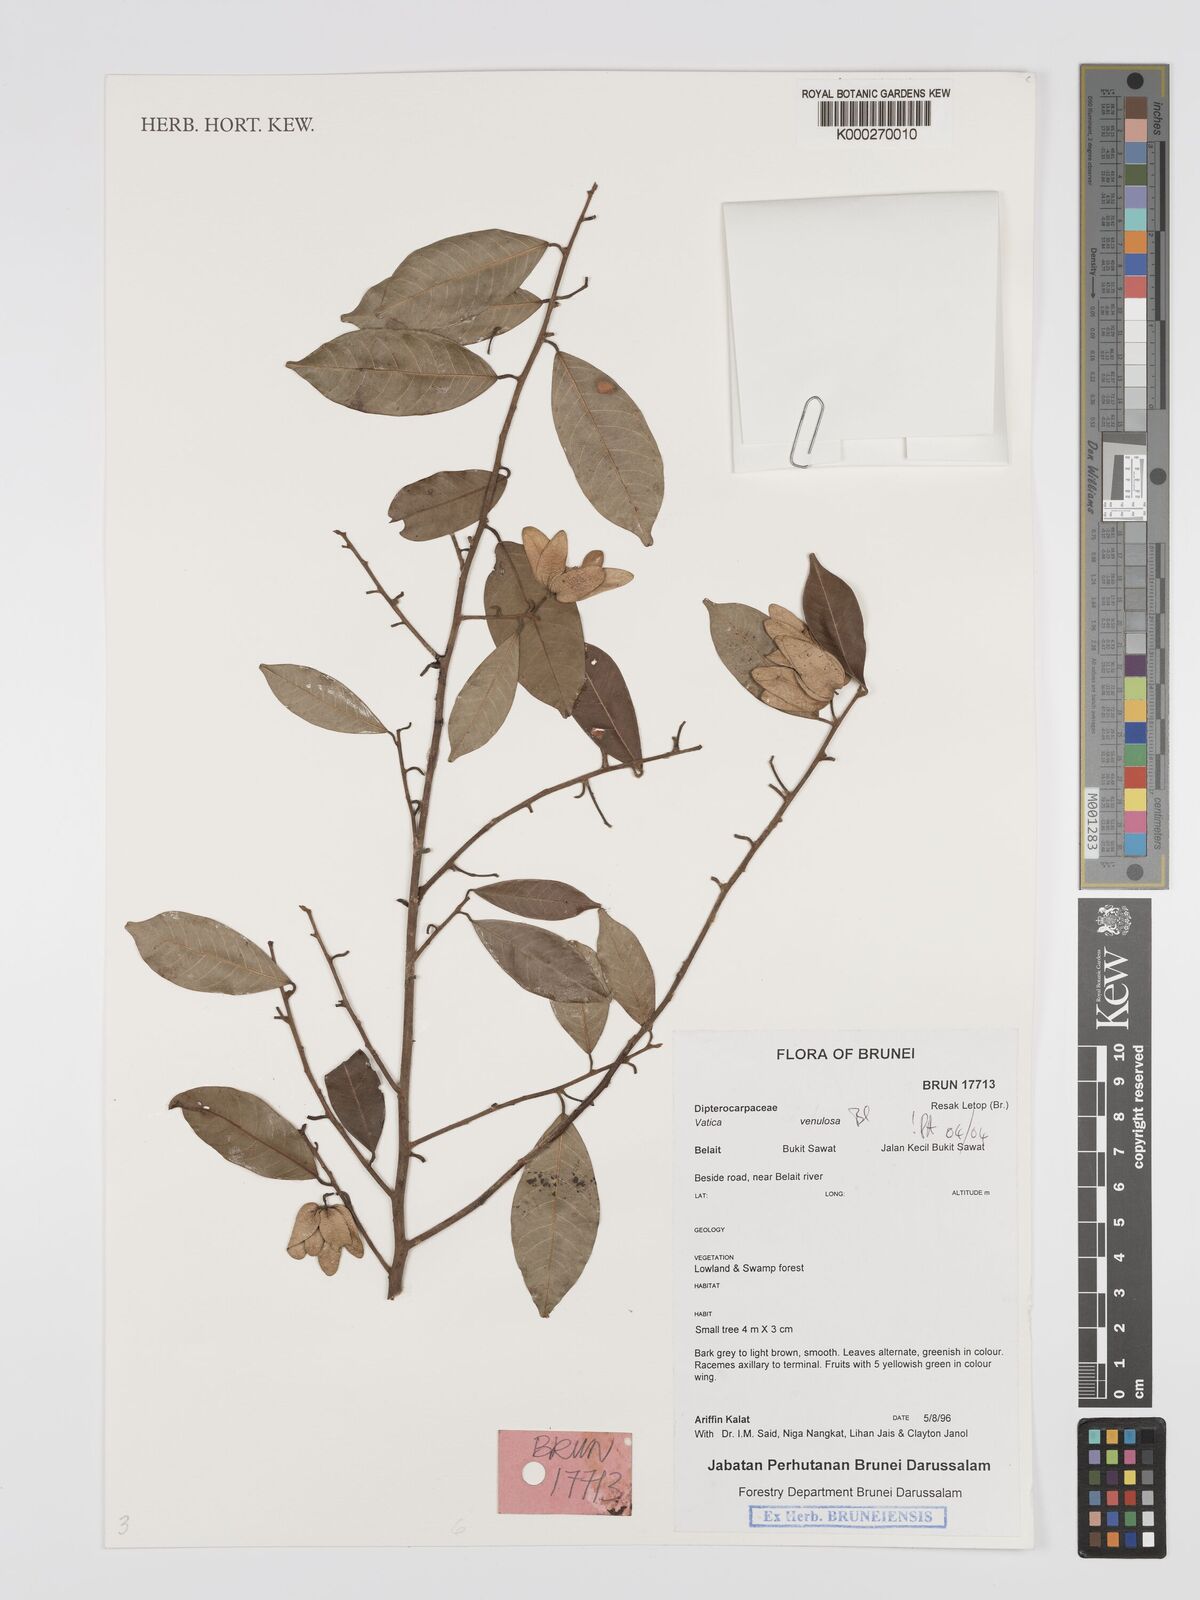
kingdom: Plantae
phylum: Tracheophyta
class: Magnoliopsida
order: Malvales
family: Dipterocarpaceae
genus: Vatica
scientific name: Vatica venulosa
